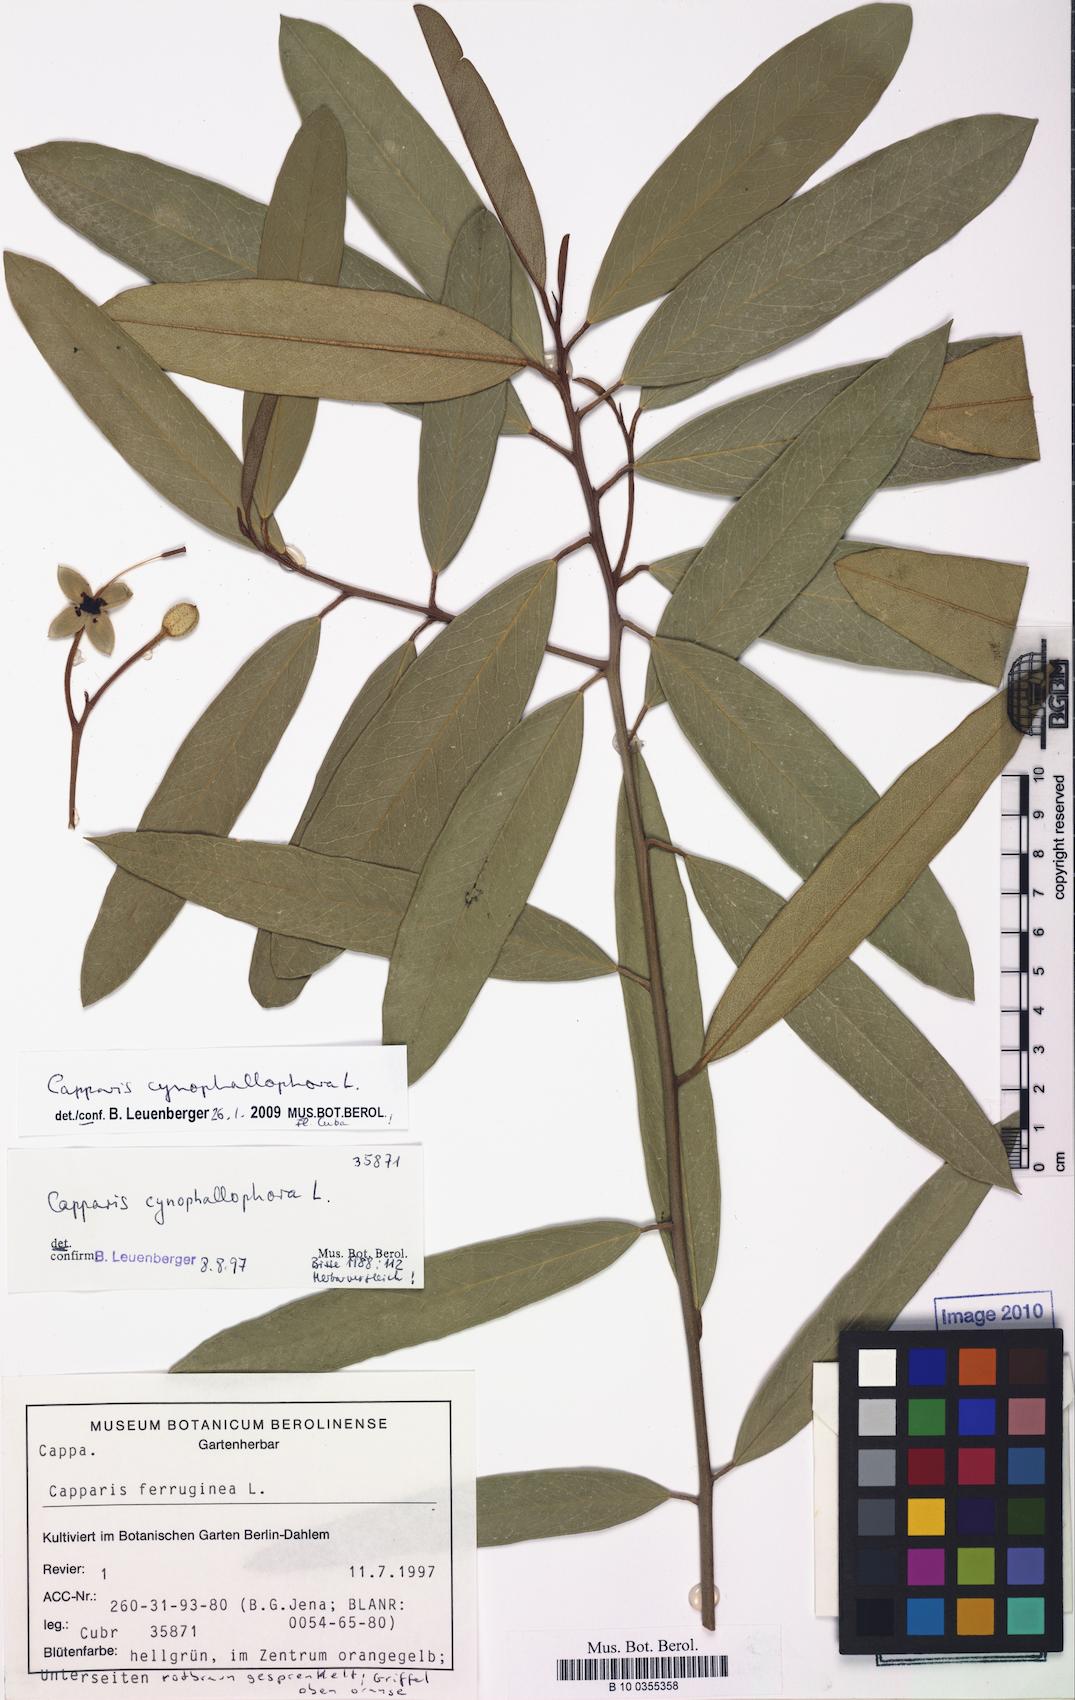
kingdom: Plantae
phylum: Tracheophyta
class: Magnoliopsida
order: Brassicales
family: Capparaceae
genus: Capparis
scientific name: Capparis
